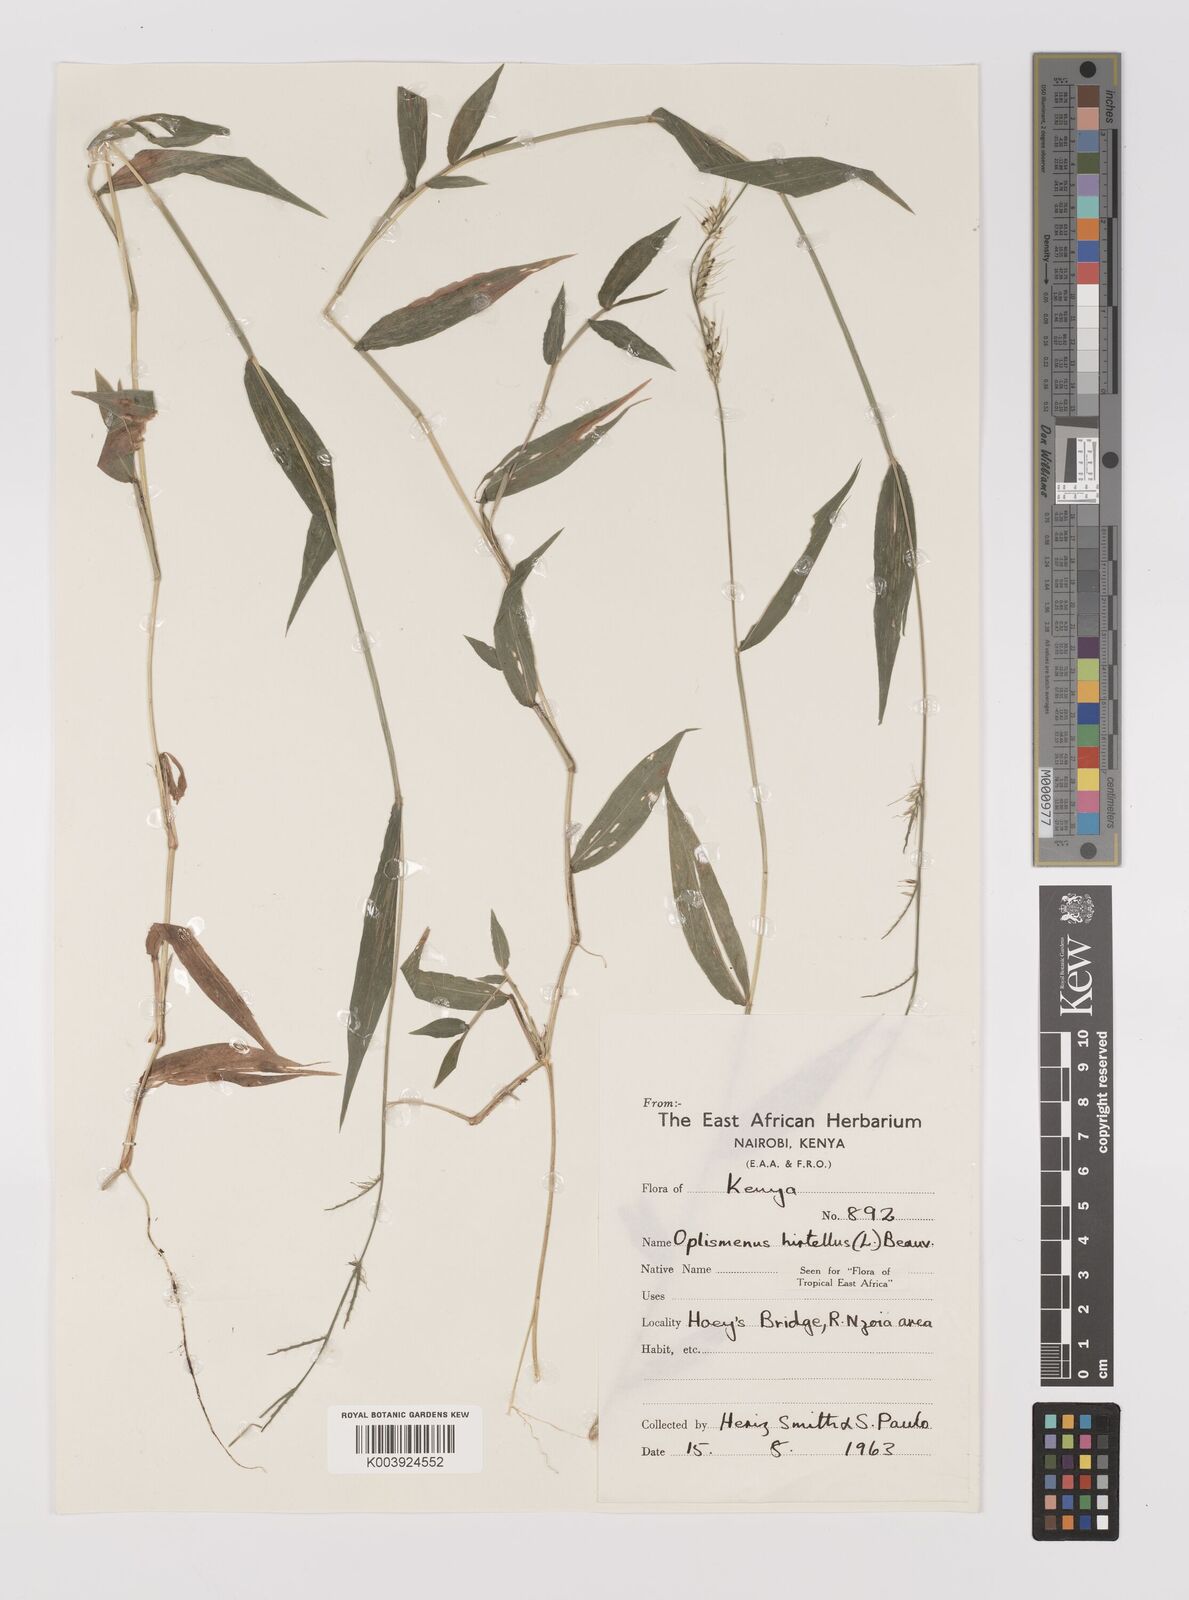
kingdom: Plantae
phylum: Tracheophyta
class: Liliopsida
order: Poales
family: Poaceae
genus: Oplismenus
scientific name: Oplismenus hirtellus
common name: Basketgrass
